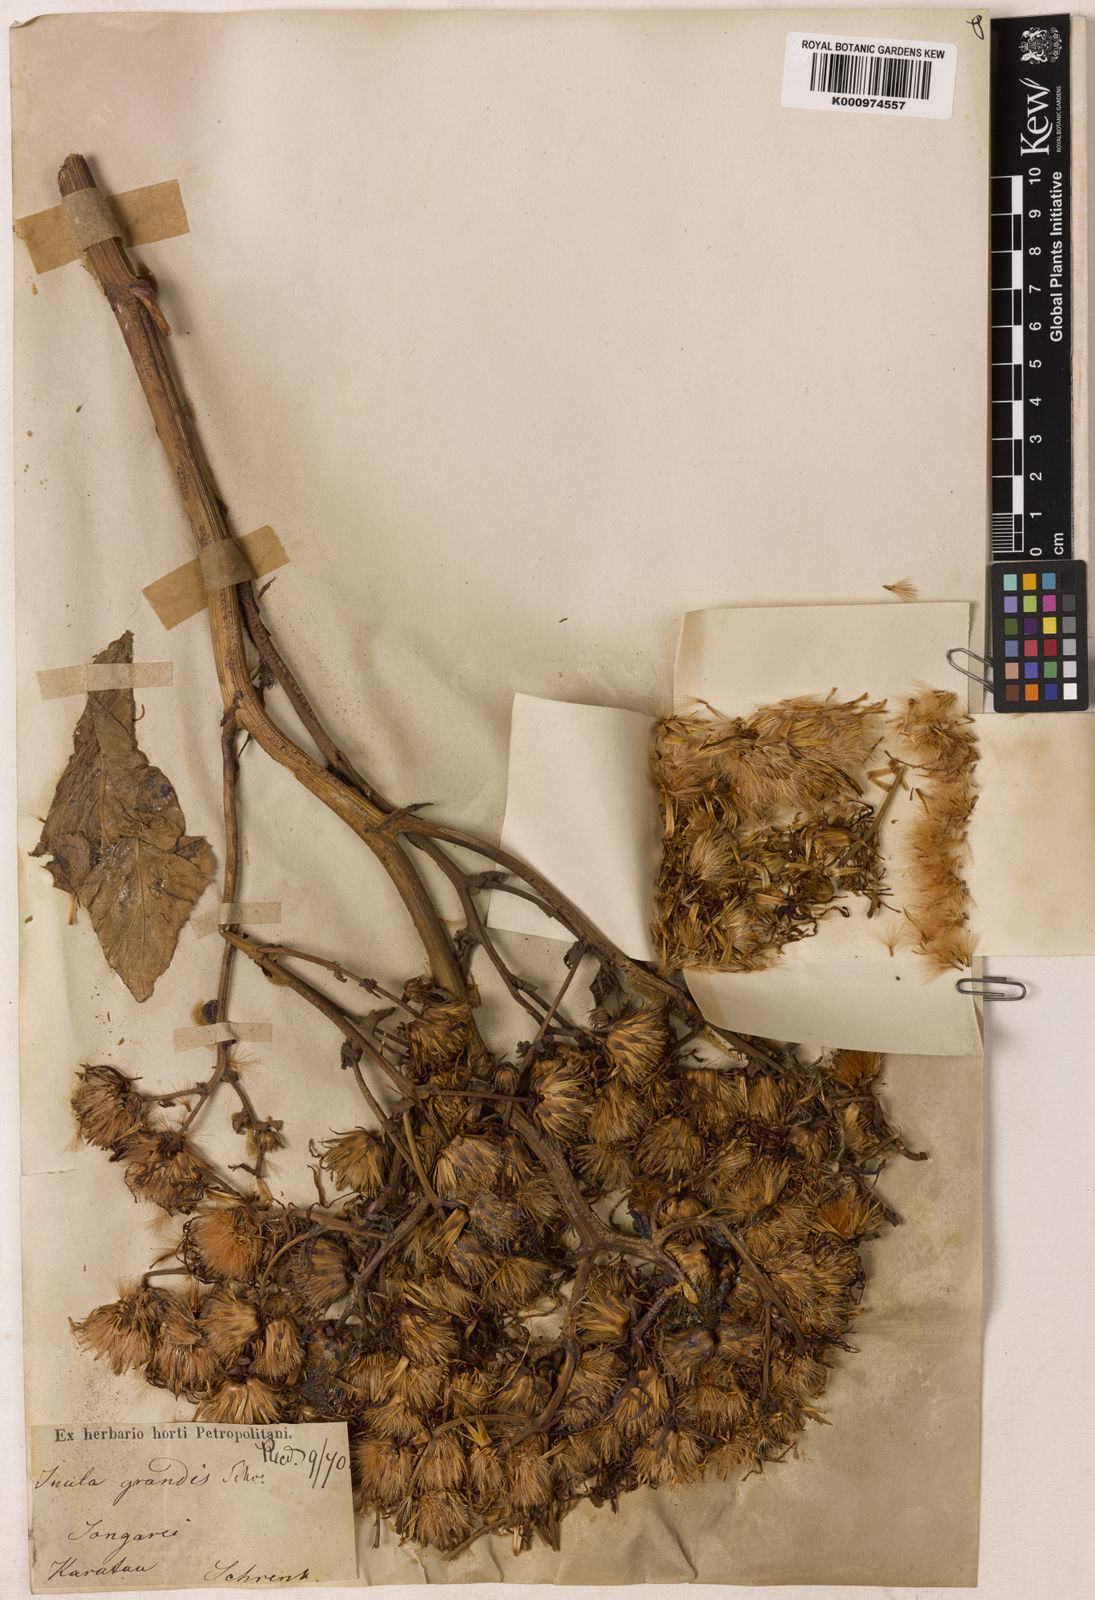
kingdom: Plantae
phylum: Tracheophyta
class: Magnoliopsida
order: Asterales
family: Asteraceae
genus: Inula
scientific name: Inula grandis
